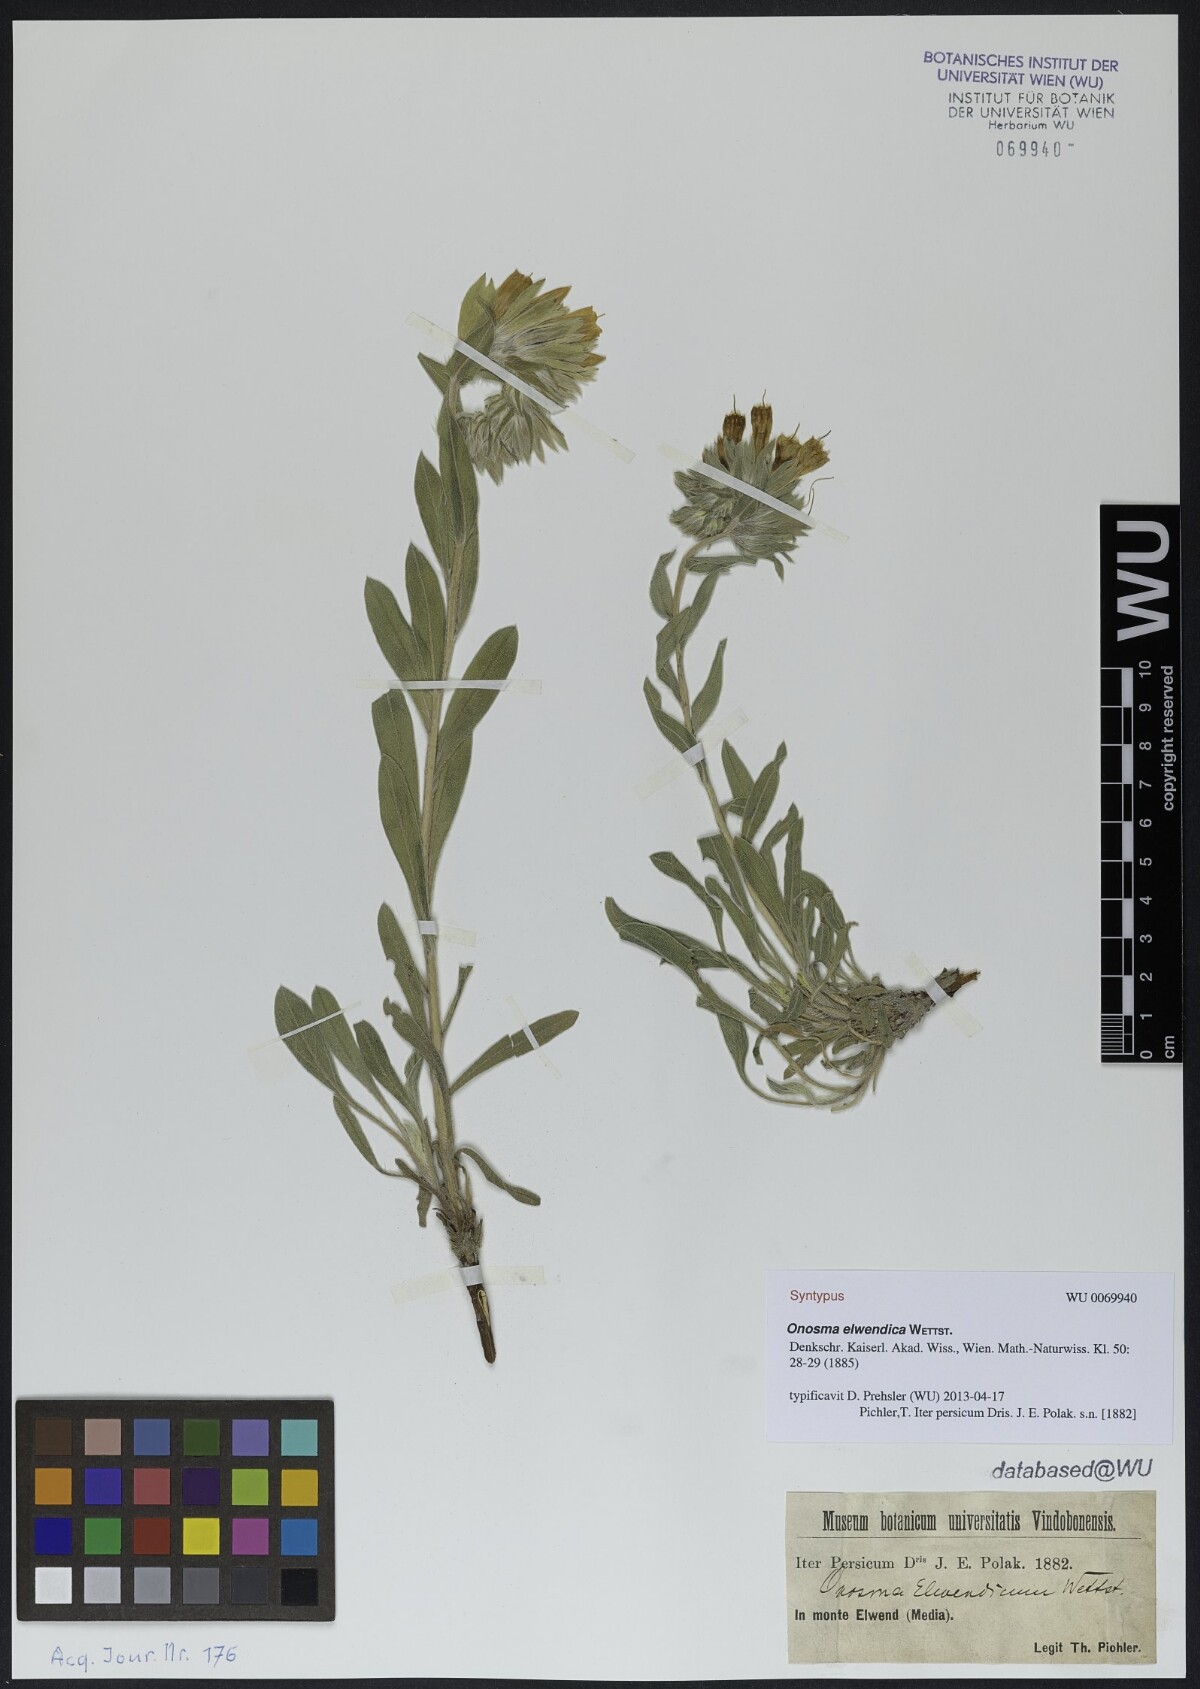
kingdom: Plantae
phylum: Tracheophyta
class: Magnoliopsida
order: Boraginales
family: Boraginaceae
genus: Onosma
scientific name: Onosma elwendica
